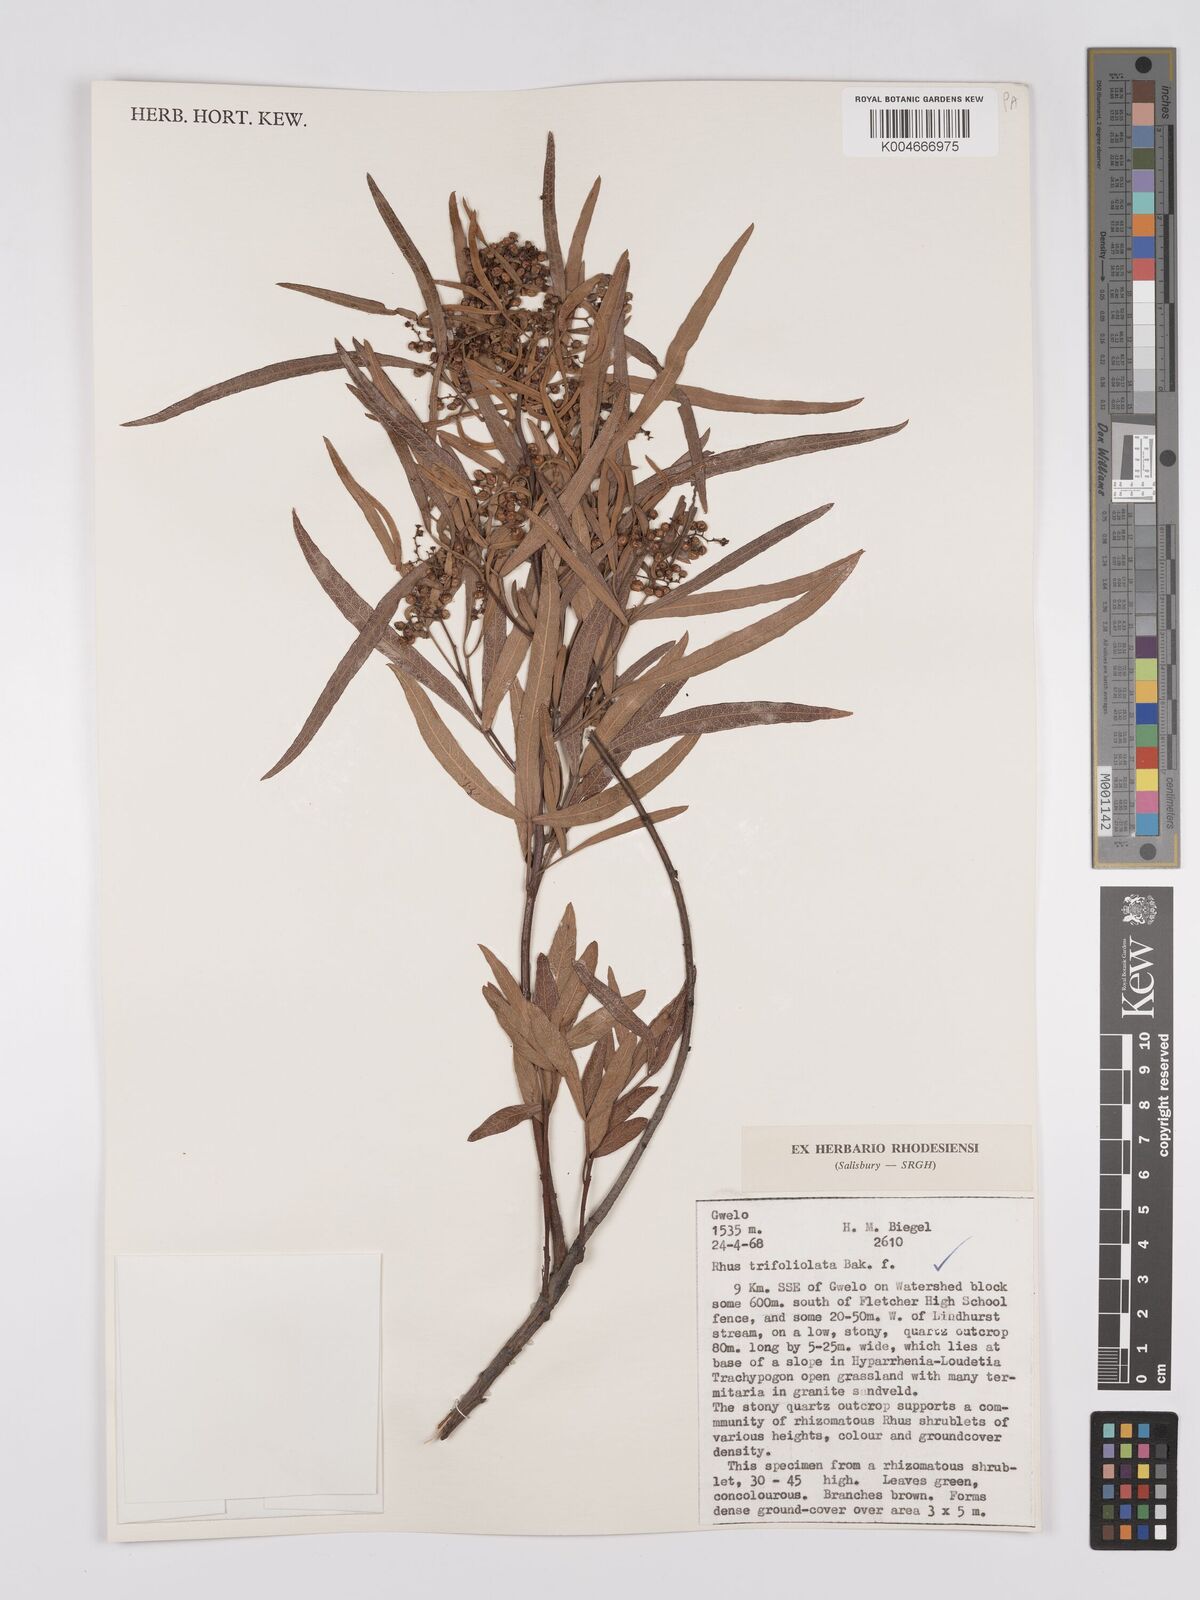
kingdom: Plantae
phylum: Tracheophyta
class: Magnoliopsida
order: Sapindales
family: Anacardiaceae
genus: Searsia
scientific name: Searsia magalismontana
